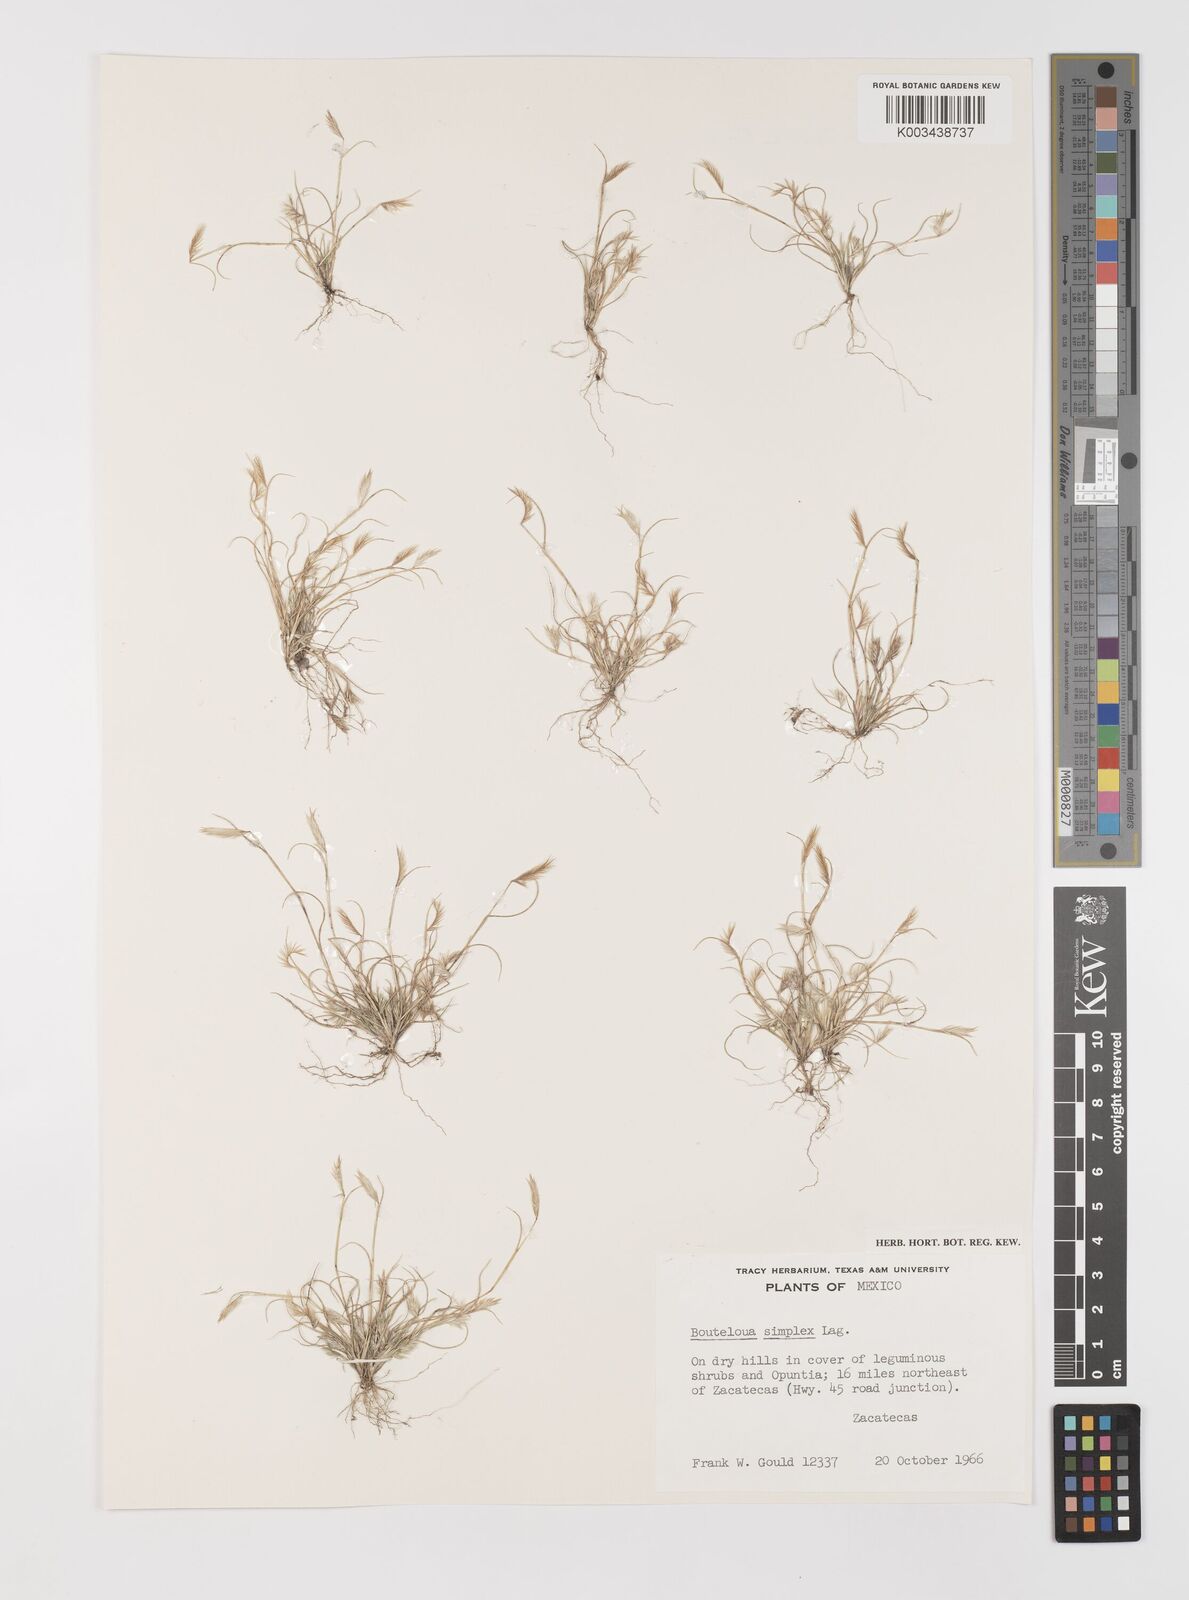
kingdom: Plantae
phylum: Tracheophyta
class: Liliopsida
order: Poales
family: Poaceae
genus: Bouteloua
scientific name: Bouteloua simplex
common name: Mat grama
